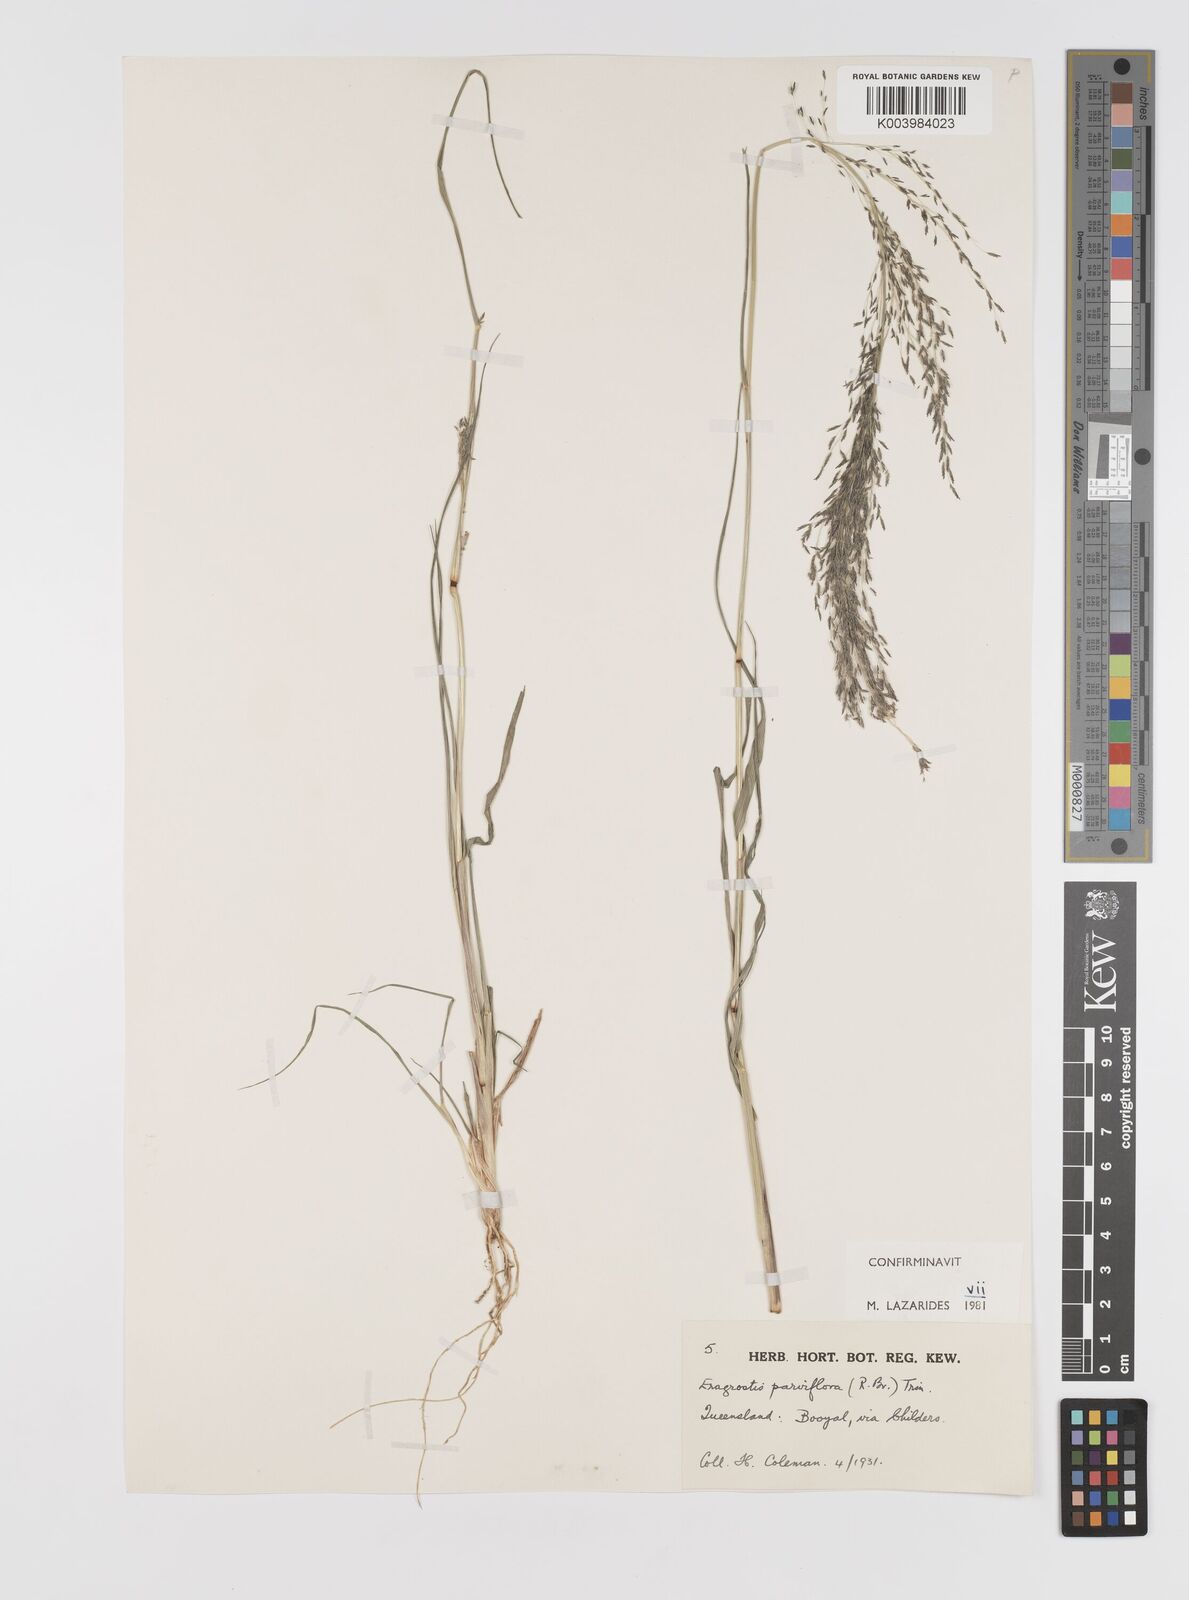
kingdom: Plantae
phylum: Tracheophyta
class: Liliopsida
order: Poales
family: Poaceae
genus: Eragrostis
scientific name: Eragrostis parviflora
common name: Weeping love-grass
